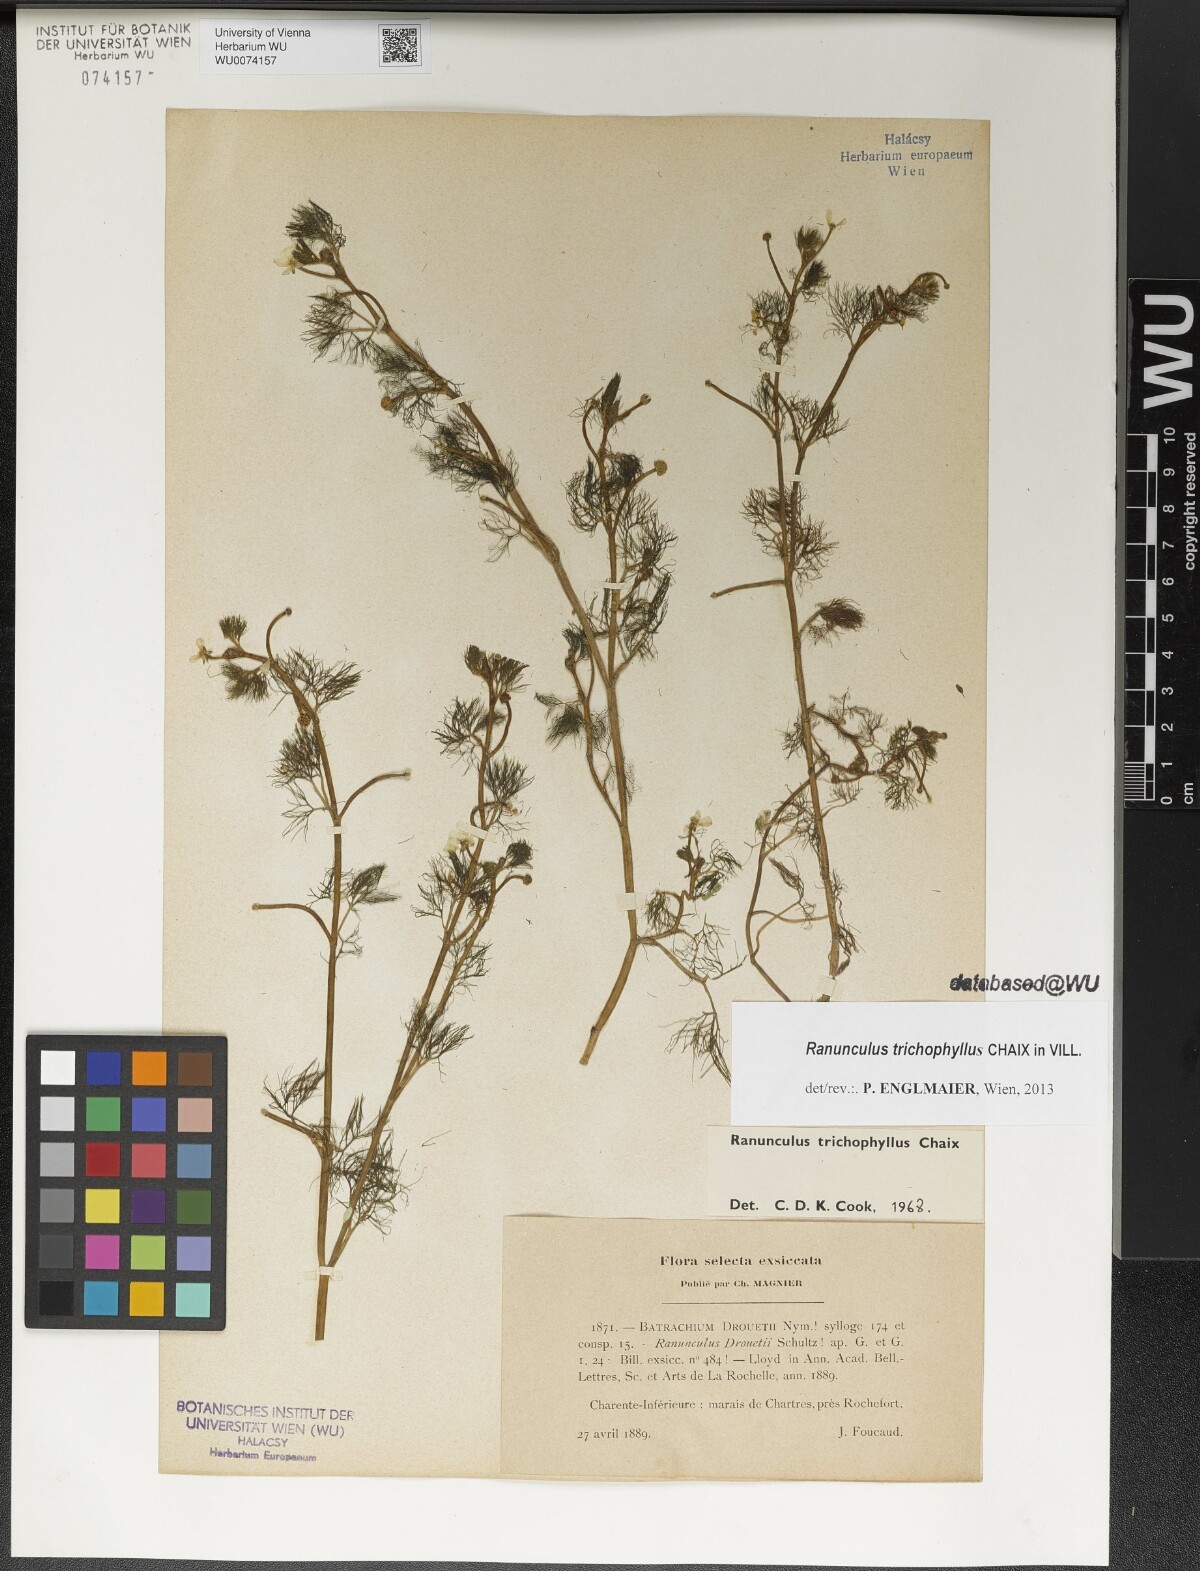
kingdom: Plantae
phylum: Tracheophyta
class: Magnoliopsida
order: Ranunculales
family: Ranunculaceae
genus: Ranunculus
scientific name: Ranunculus trichophyllus
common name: Thread-leaved water-crowfoot
